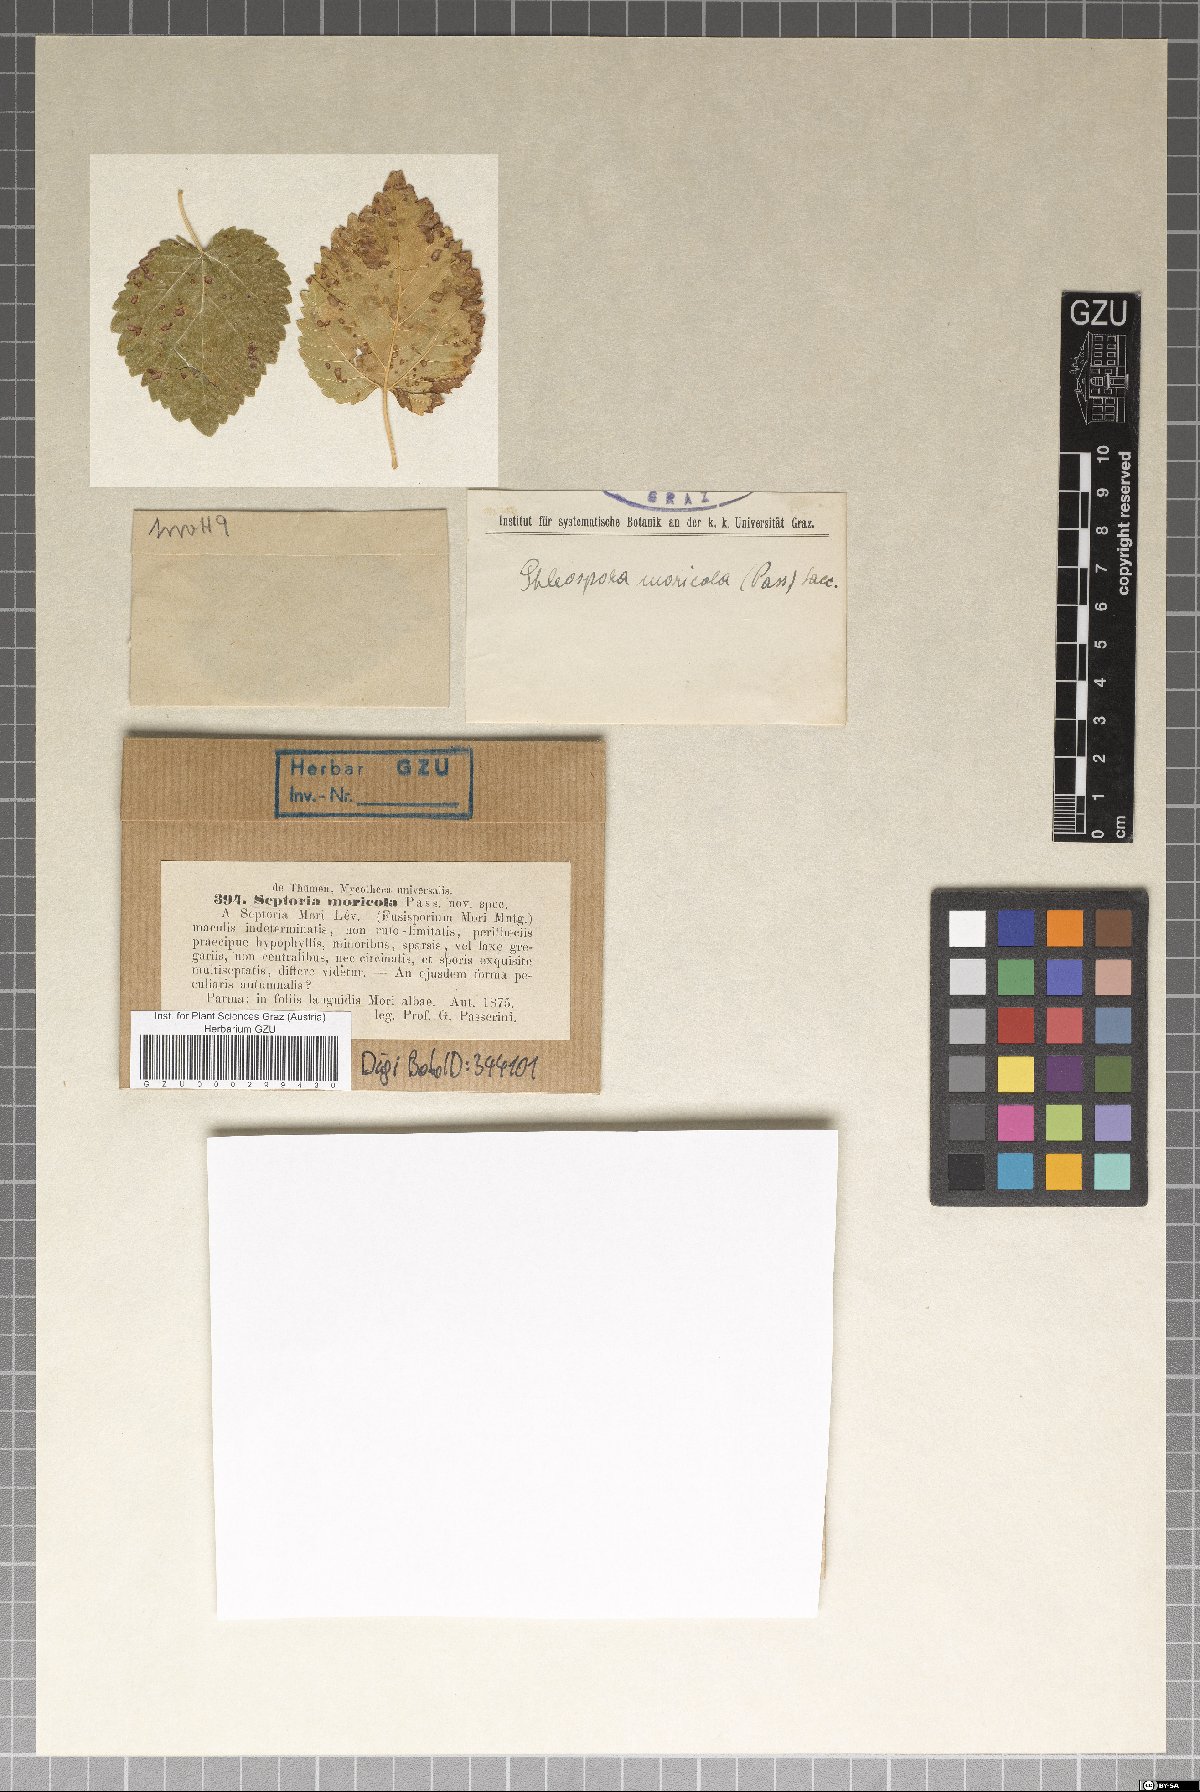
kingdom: Fungi
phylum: Ascomycota
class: Dothideomycetes
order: Mycosphaerellales
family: Mycosphaerellaceae
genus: Septoria
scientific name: Septoria
